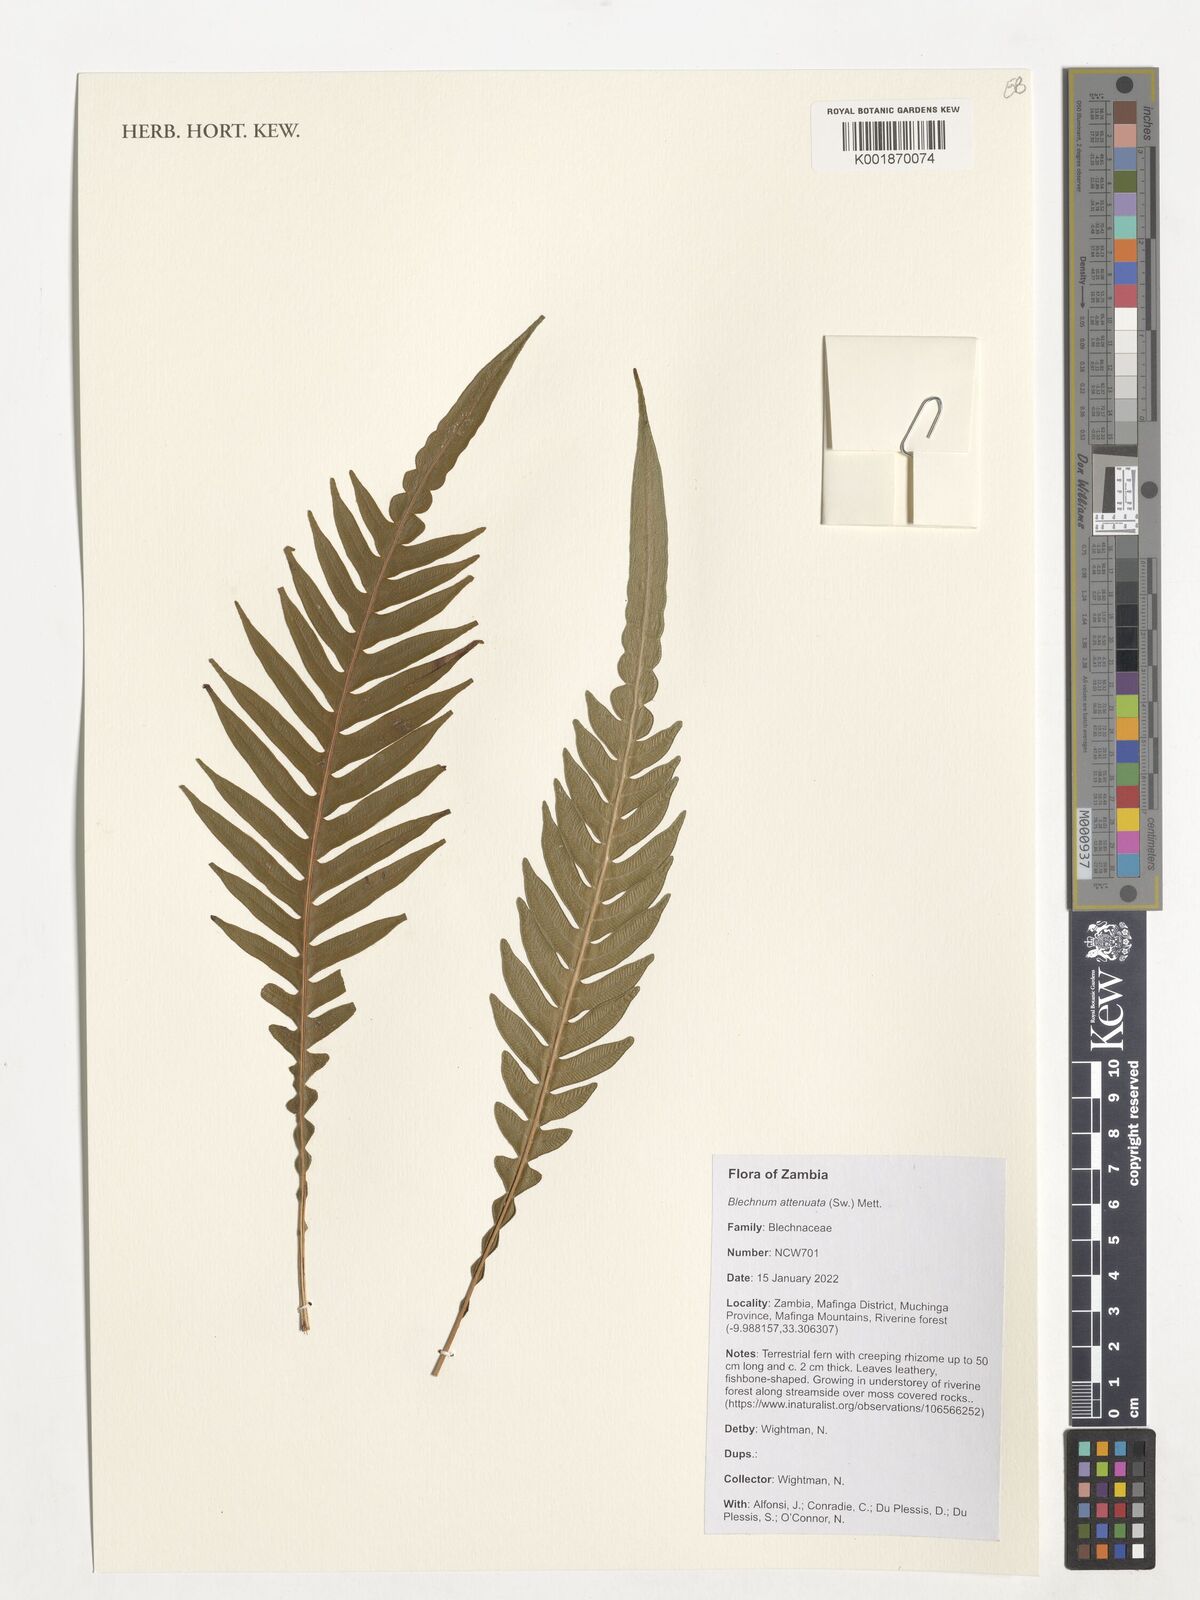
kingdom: Plantae
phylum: Tracheophyta
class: Polypodiopsida
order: Polypodiales
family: Blechnaceae
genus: Lomaridium
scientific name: Lomaridium attenuatum
